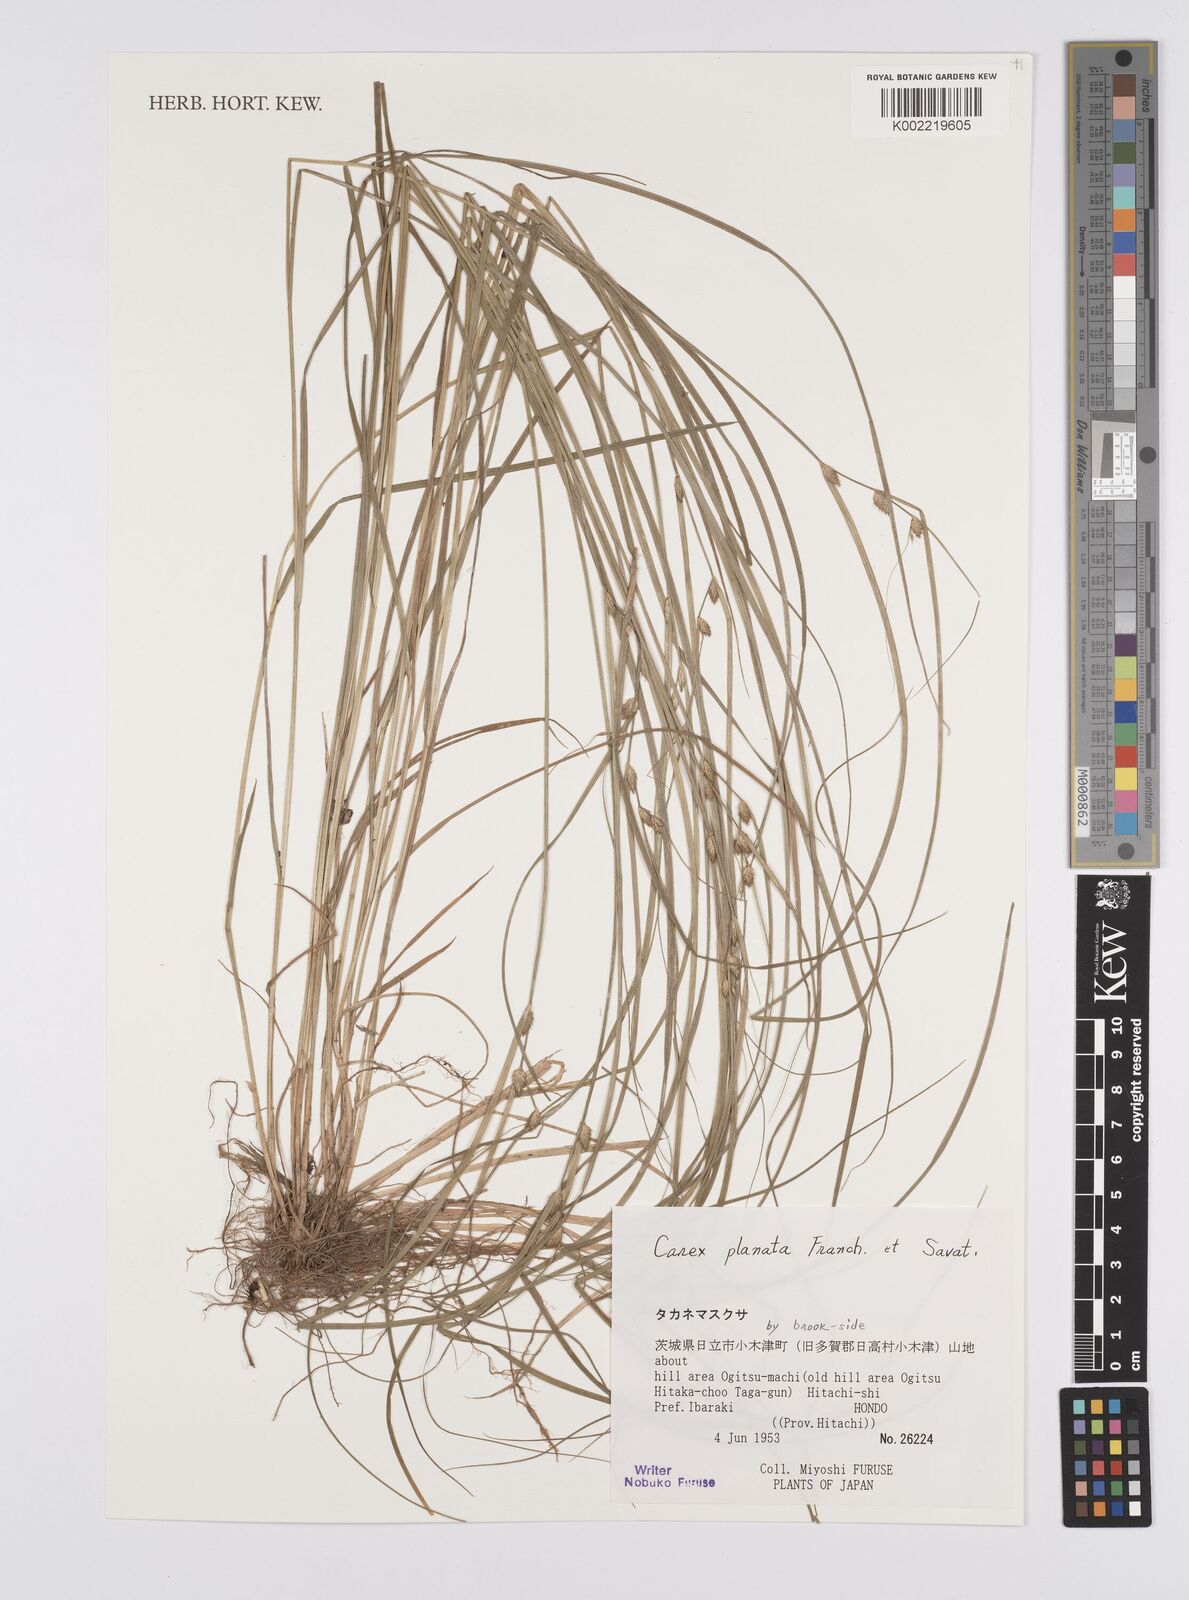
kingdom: Plantae
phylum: Tracheophyta
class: Liliopsida
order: Poales
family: Cyperaceae
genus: Carex
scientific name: Carex planata
